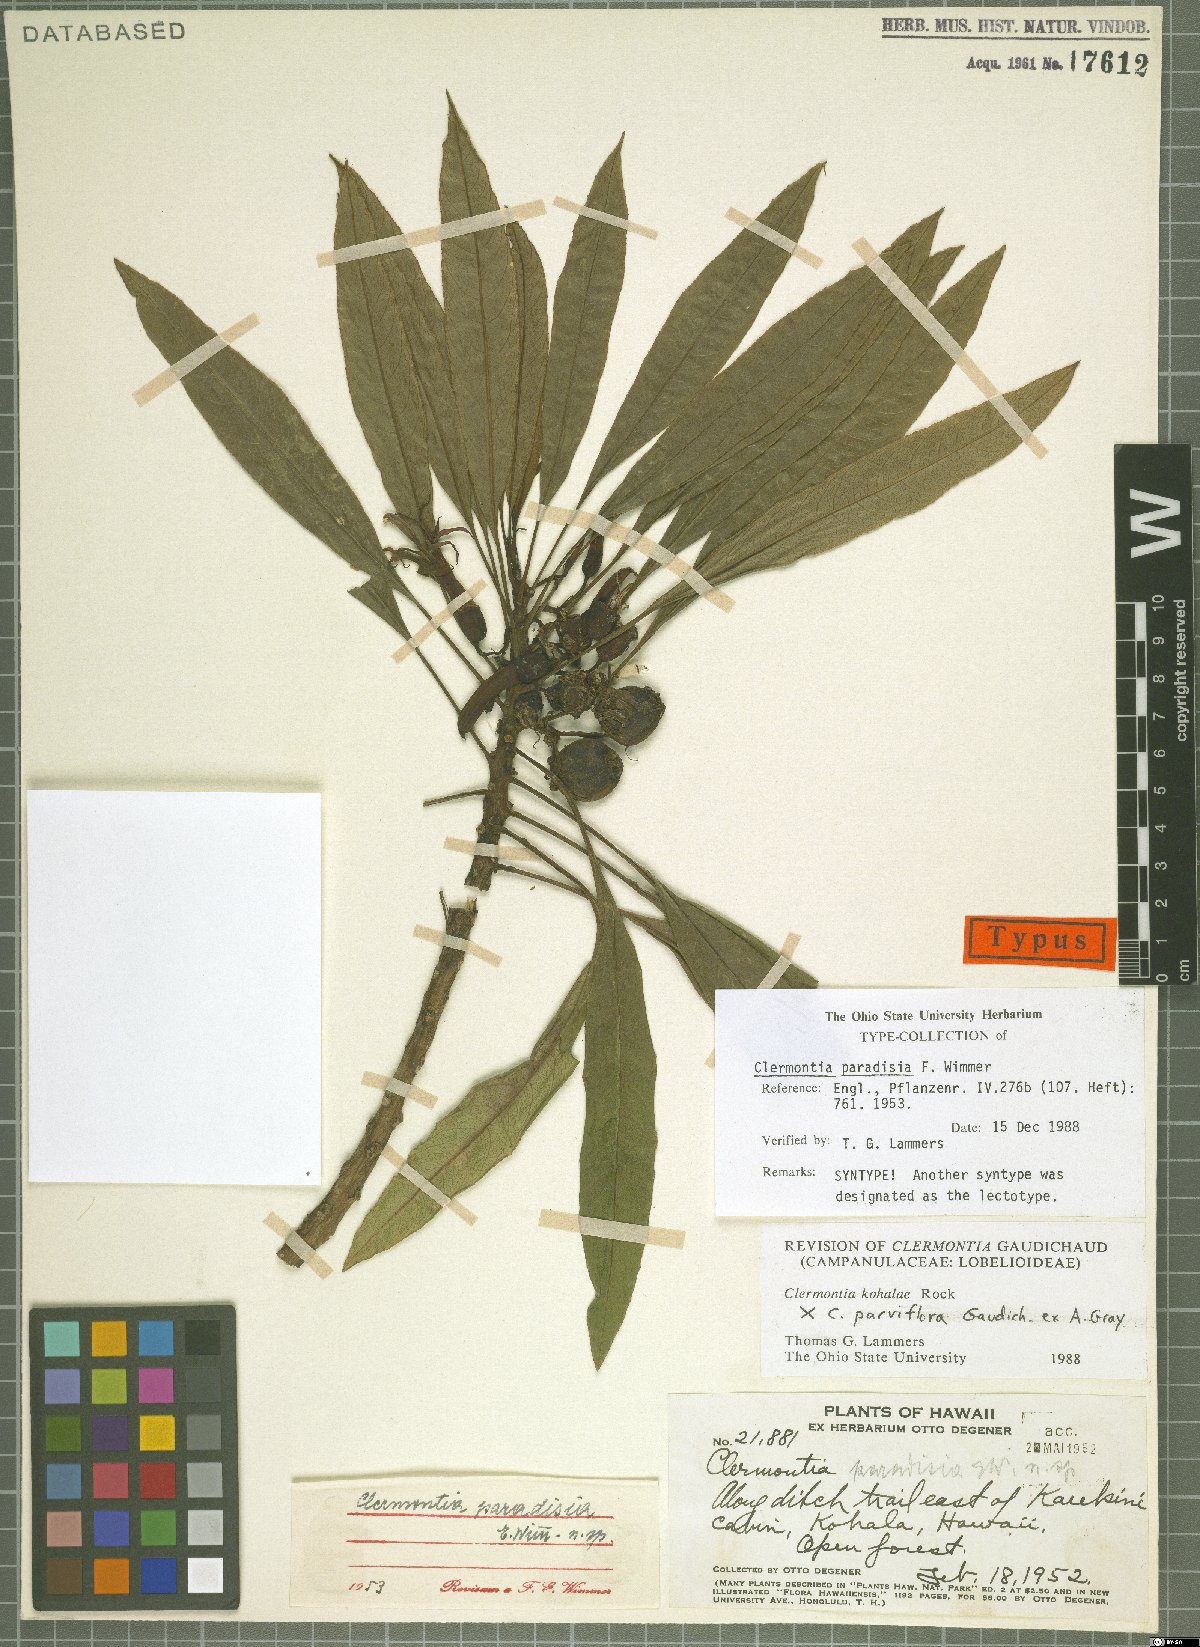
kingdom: Plantae
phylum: Tracheophyta
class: Magnoliopsida
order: Asterales
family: Campanulaceae
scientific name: Campanulaceae
